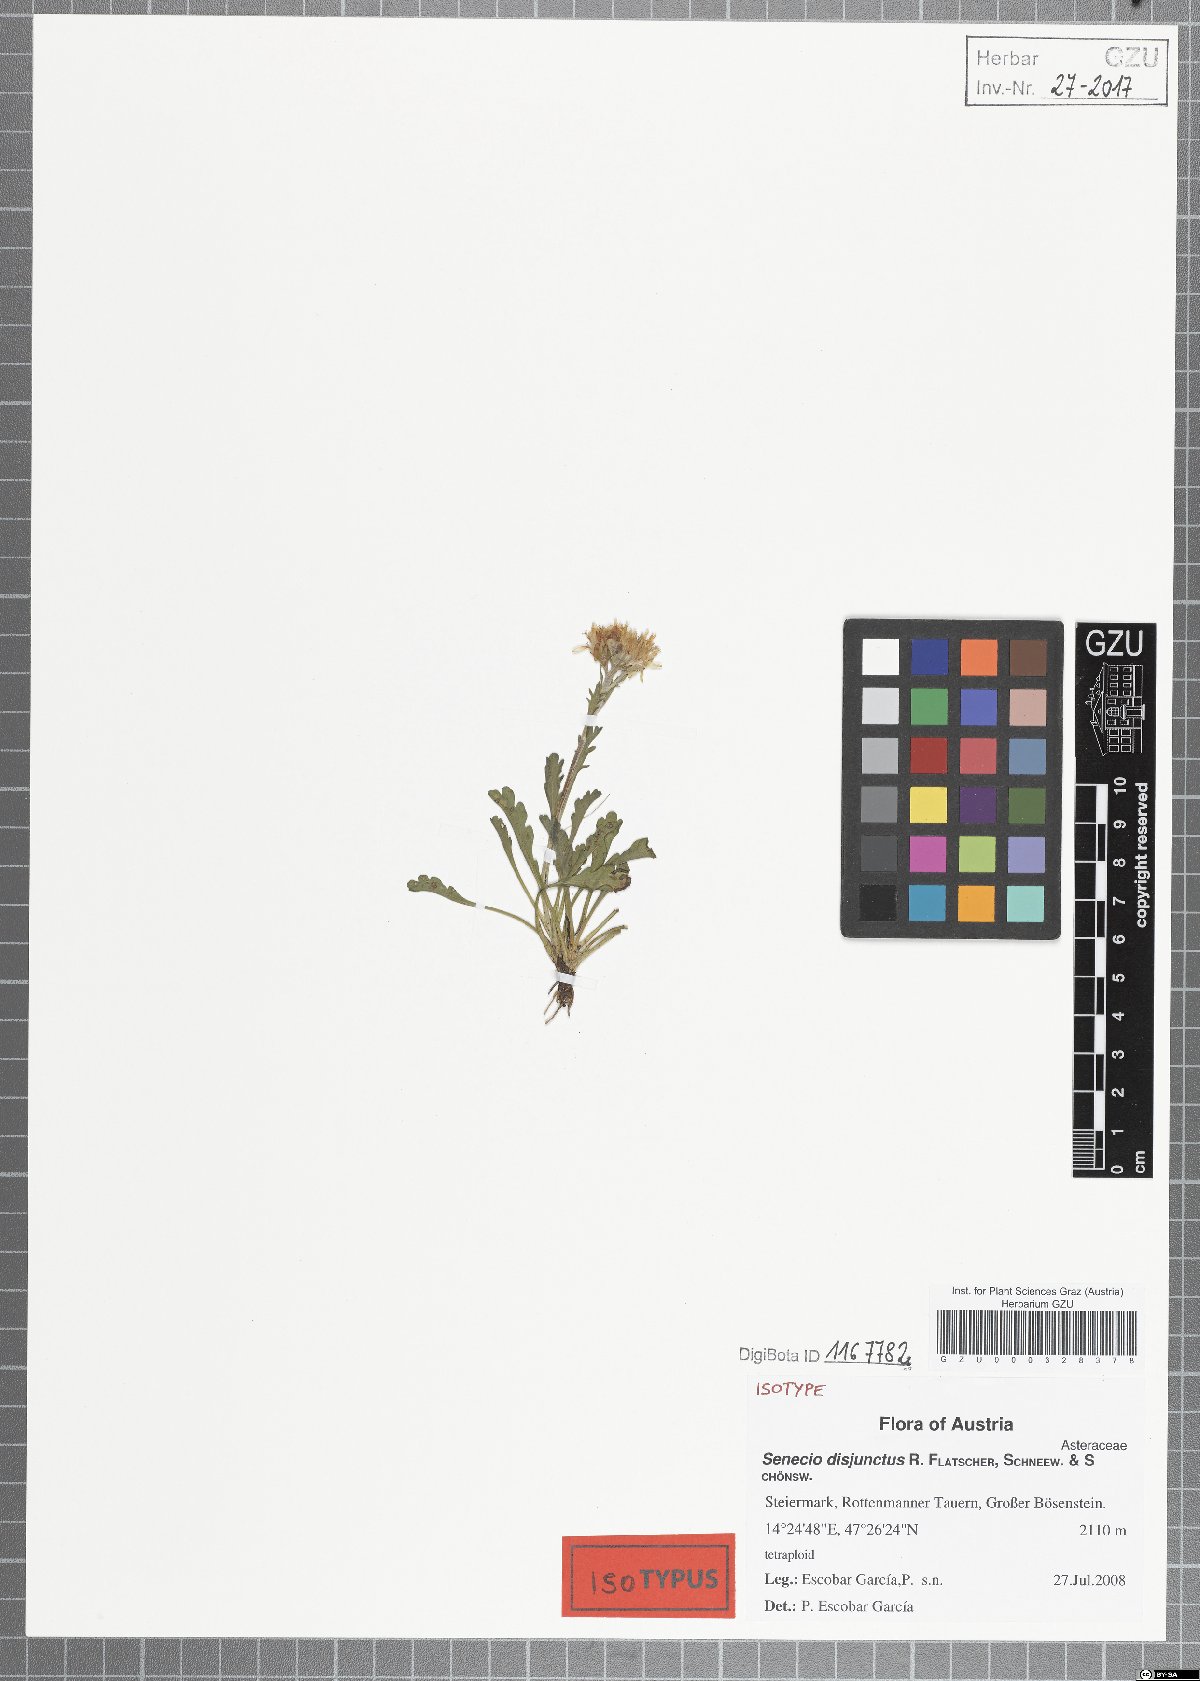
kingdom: Plantae
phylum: Tracheophyta
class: Magnoliopsida
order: Asterales
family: Asteraceae
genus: Jacobaea
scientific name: Jacobaea disjuncta
